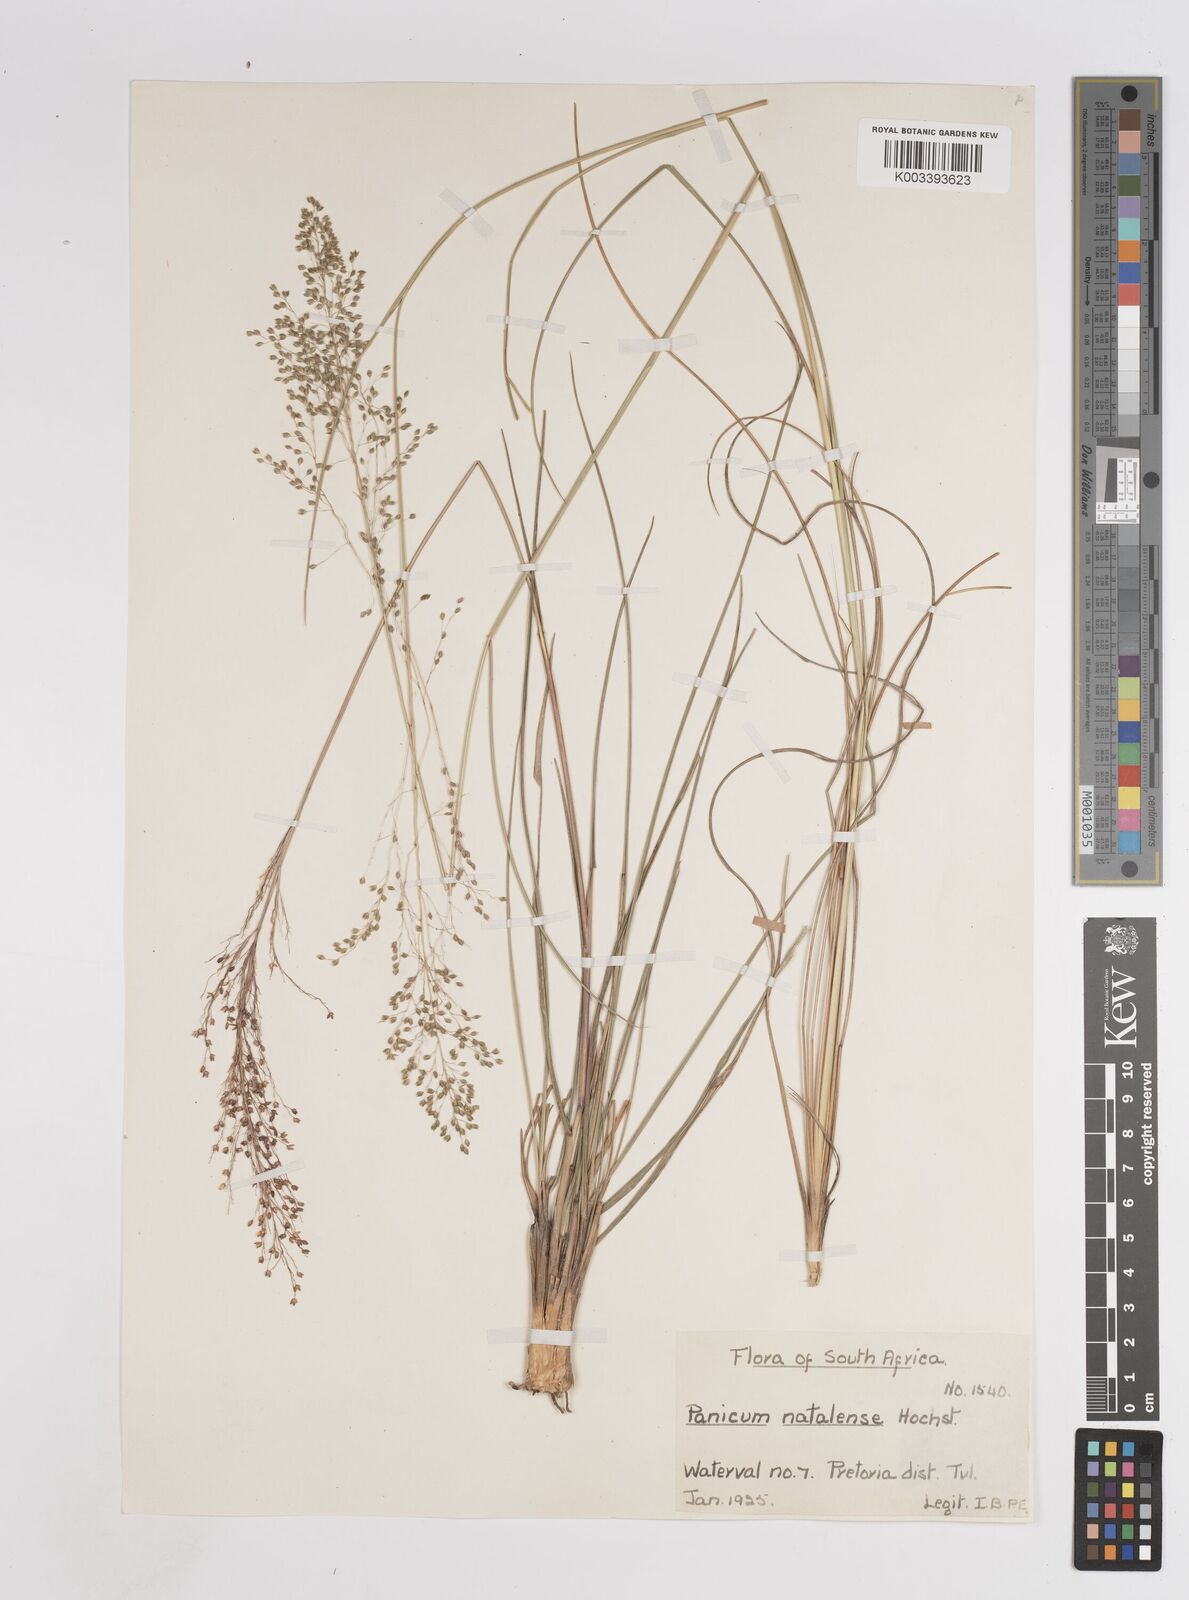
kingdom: Plantae
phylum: Tracheophyta
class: Liliopsida
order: Poales
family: Poaceae
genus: Trichanthecium
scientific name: Trichanthecium natalense
